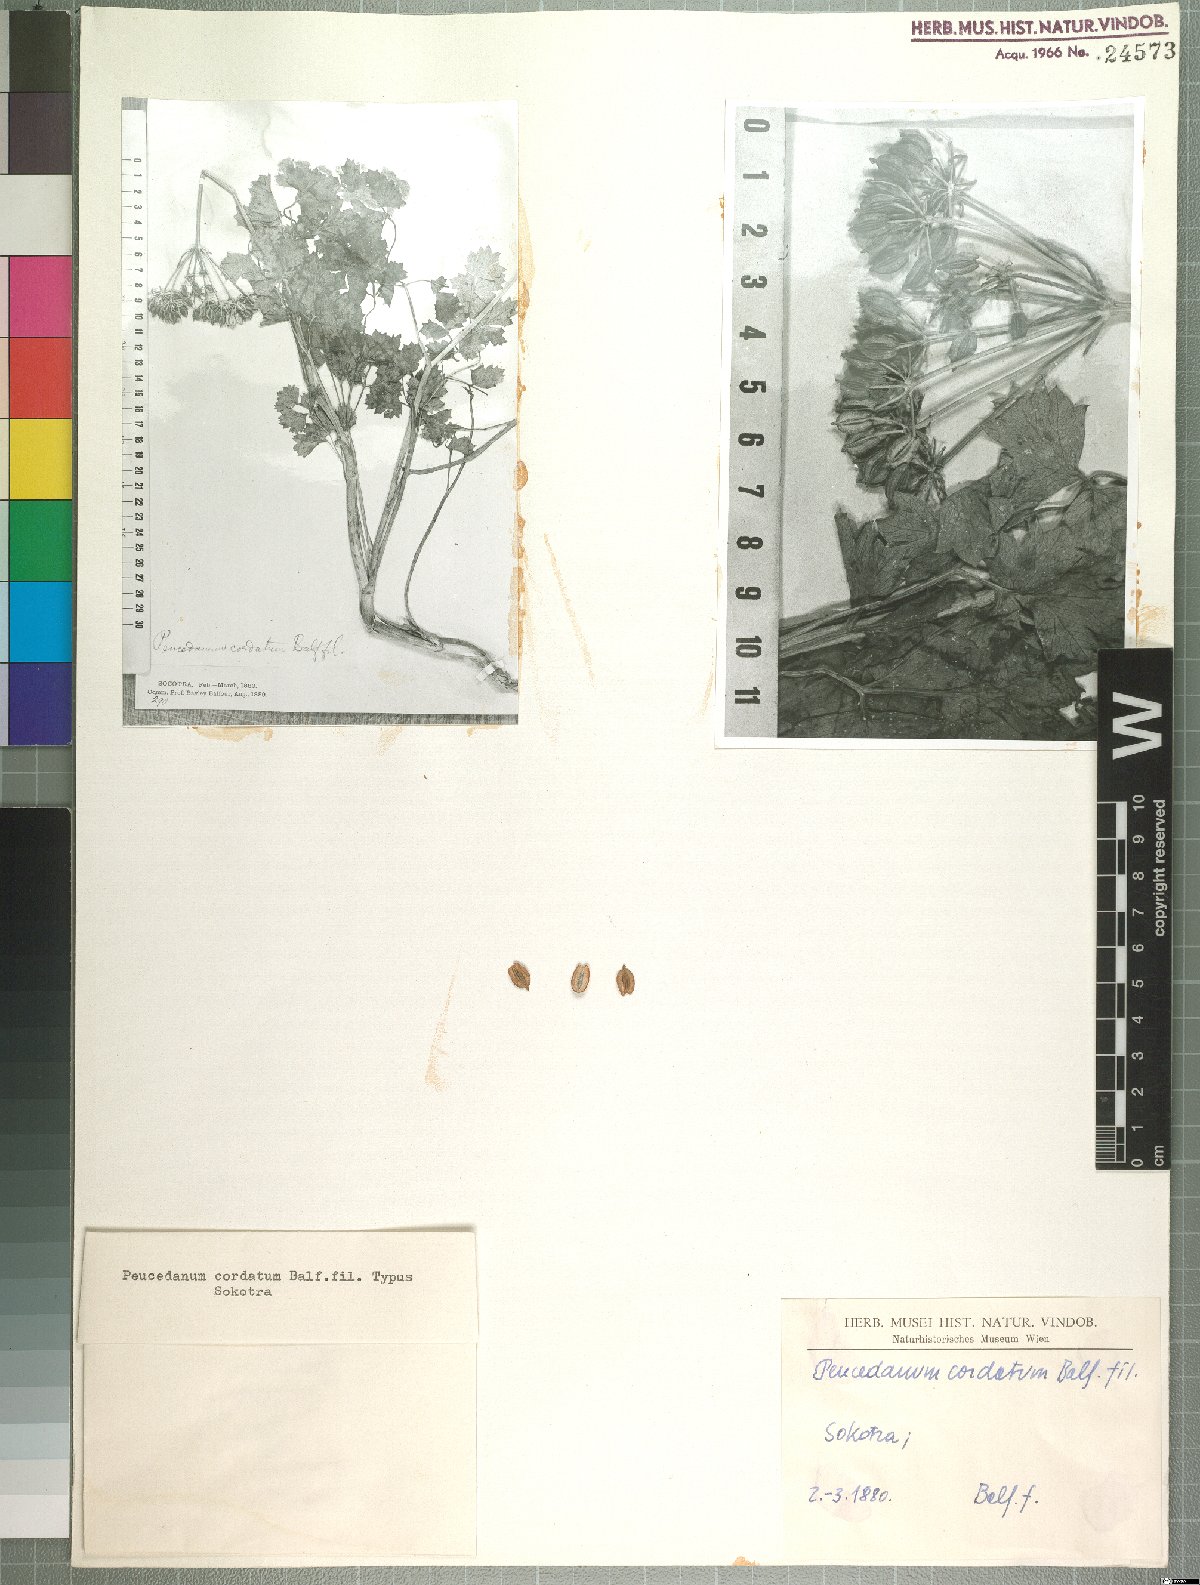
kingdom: Plantae
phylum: Tracheophyta
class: Magnoliopsida
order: Apiales
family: Apiaceae
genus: Rughidia
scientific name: Rughidia cordata
